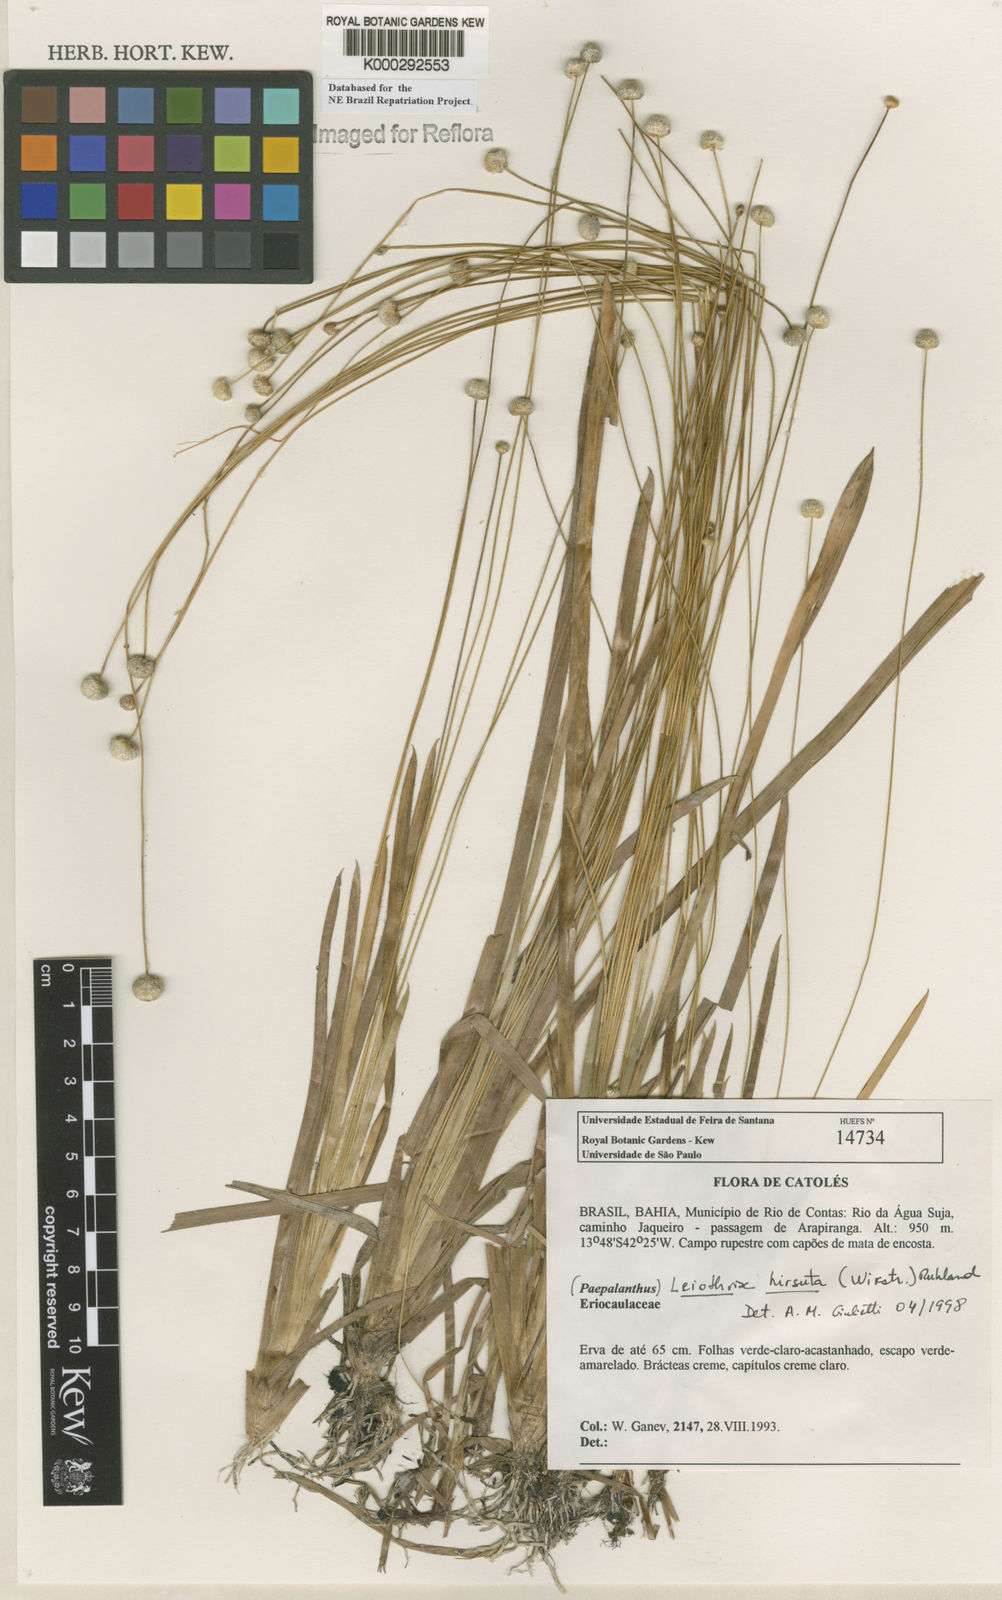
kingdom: Plantae
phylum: Tracheophyta
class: Liliopsida
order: Poales
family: Eriocaulaceae
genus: Leiothrix
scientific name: Leiothrix hirsuta
